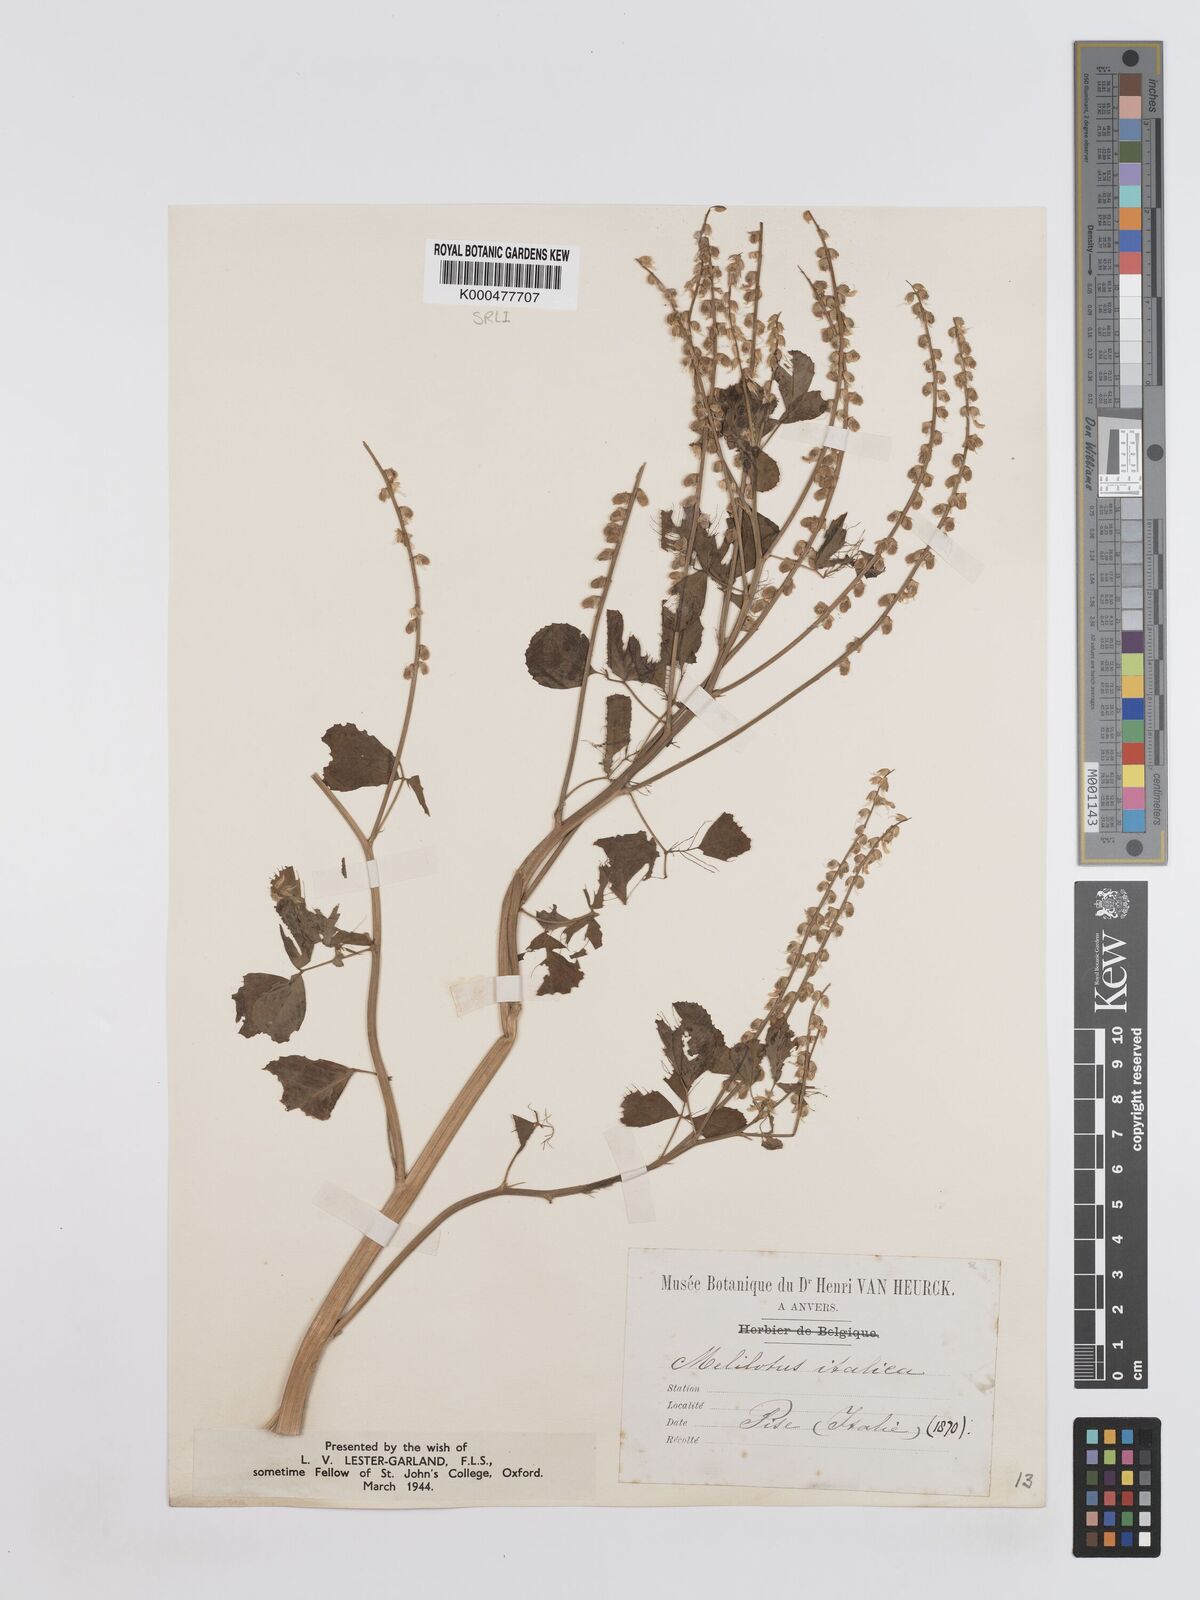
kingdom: Plantae
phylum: Tracheophyta
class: Magnoliopsida
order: Fabales
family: Fabaceae
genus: Melilotus
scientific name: Melilotus italicus
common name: Italian melilot
